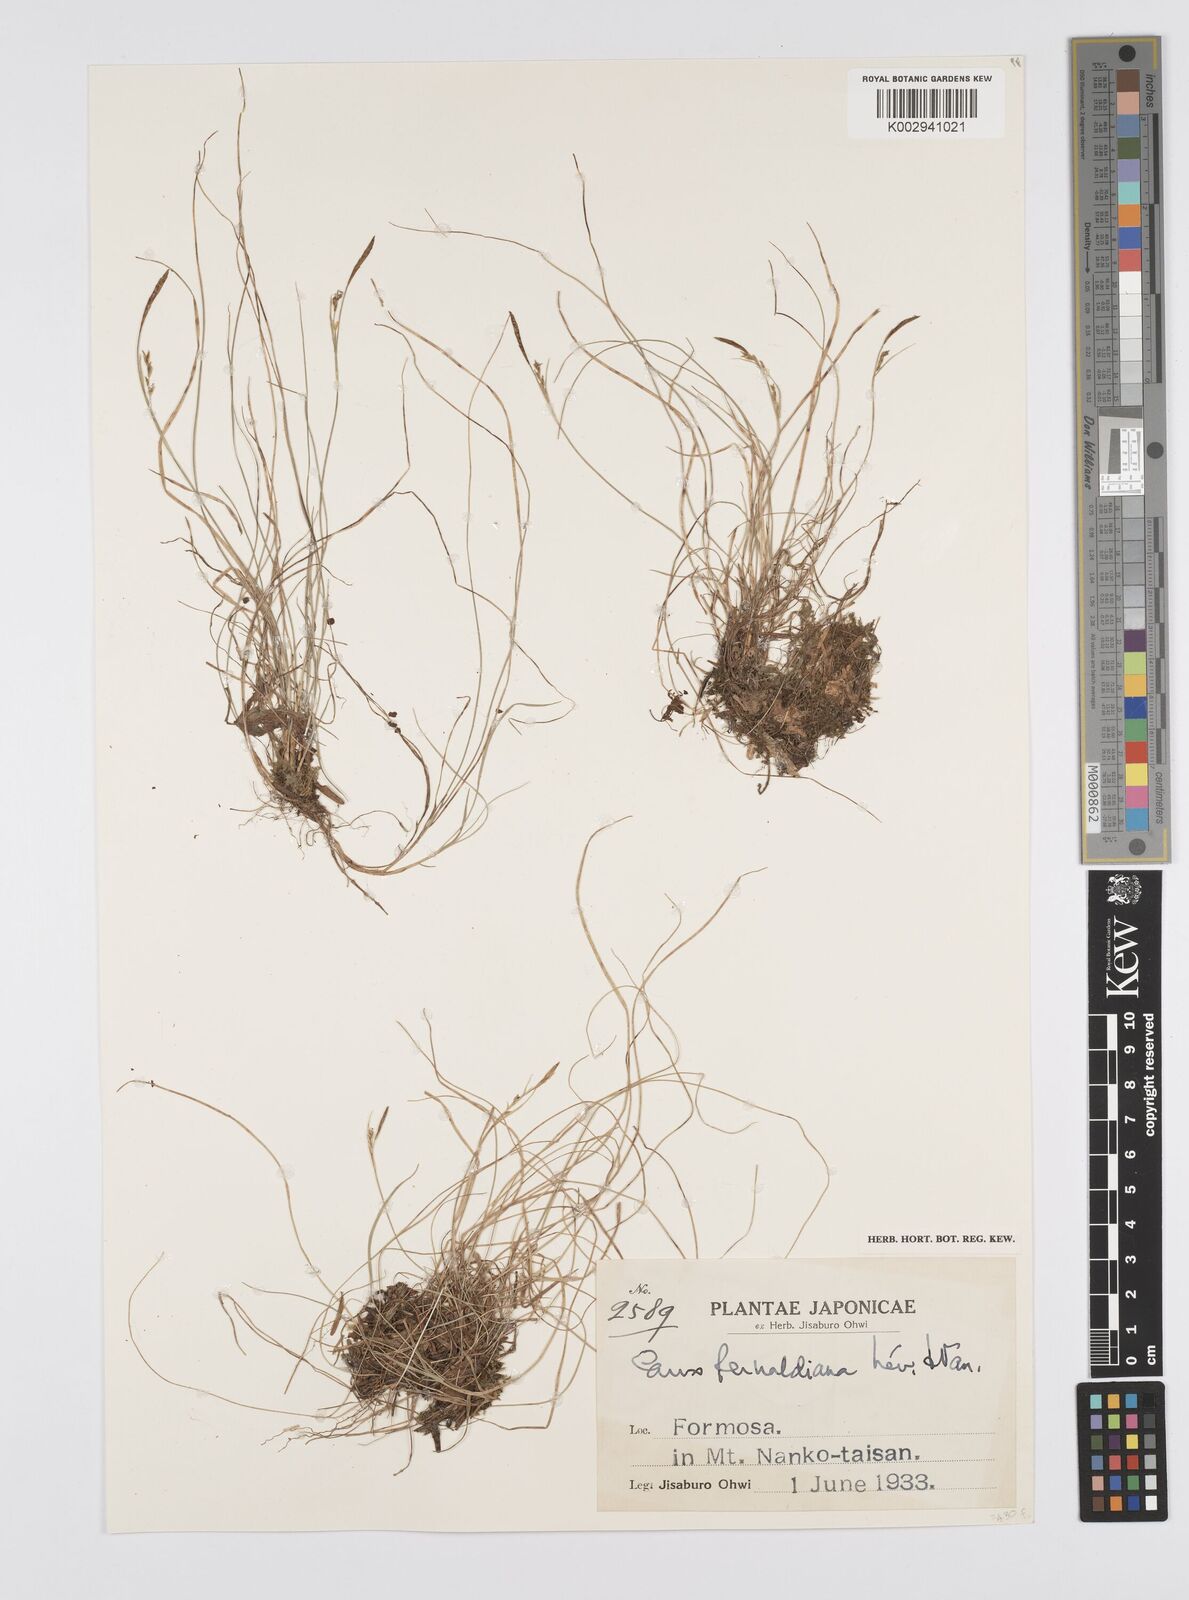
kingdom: Plantae
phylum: Tracheophyta
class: Liliopsida
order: Poales
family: Cyperaceae
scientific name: Cyperaceae
